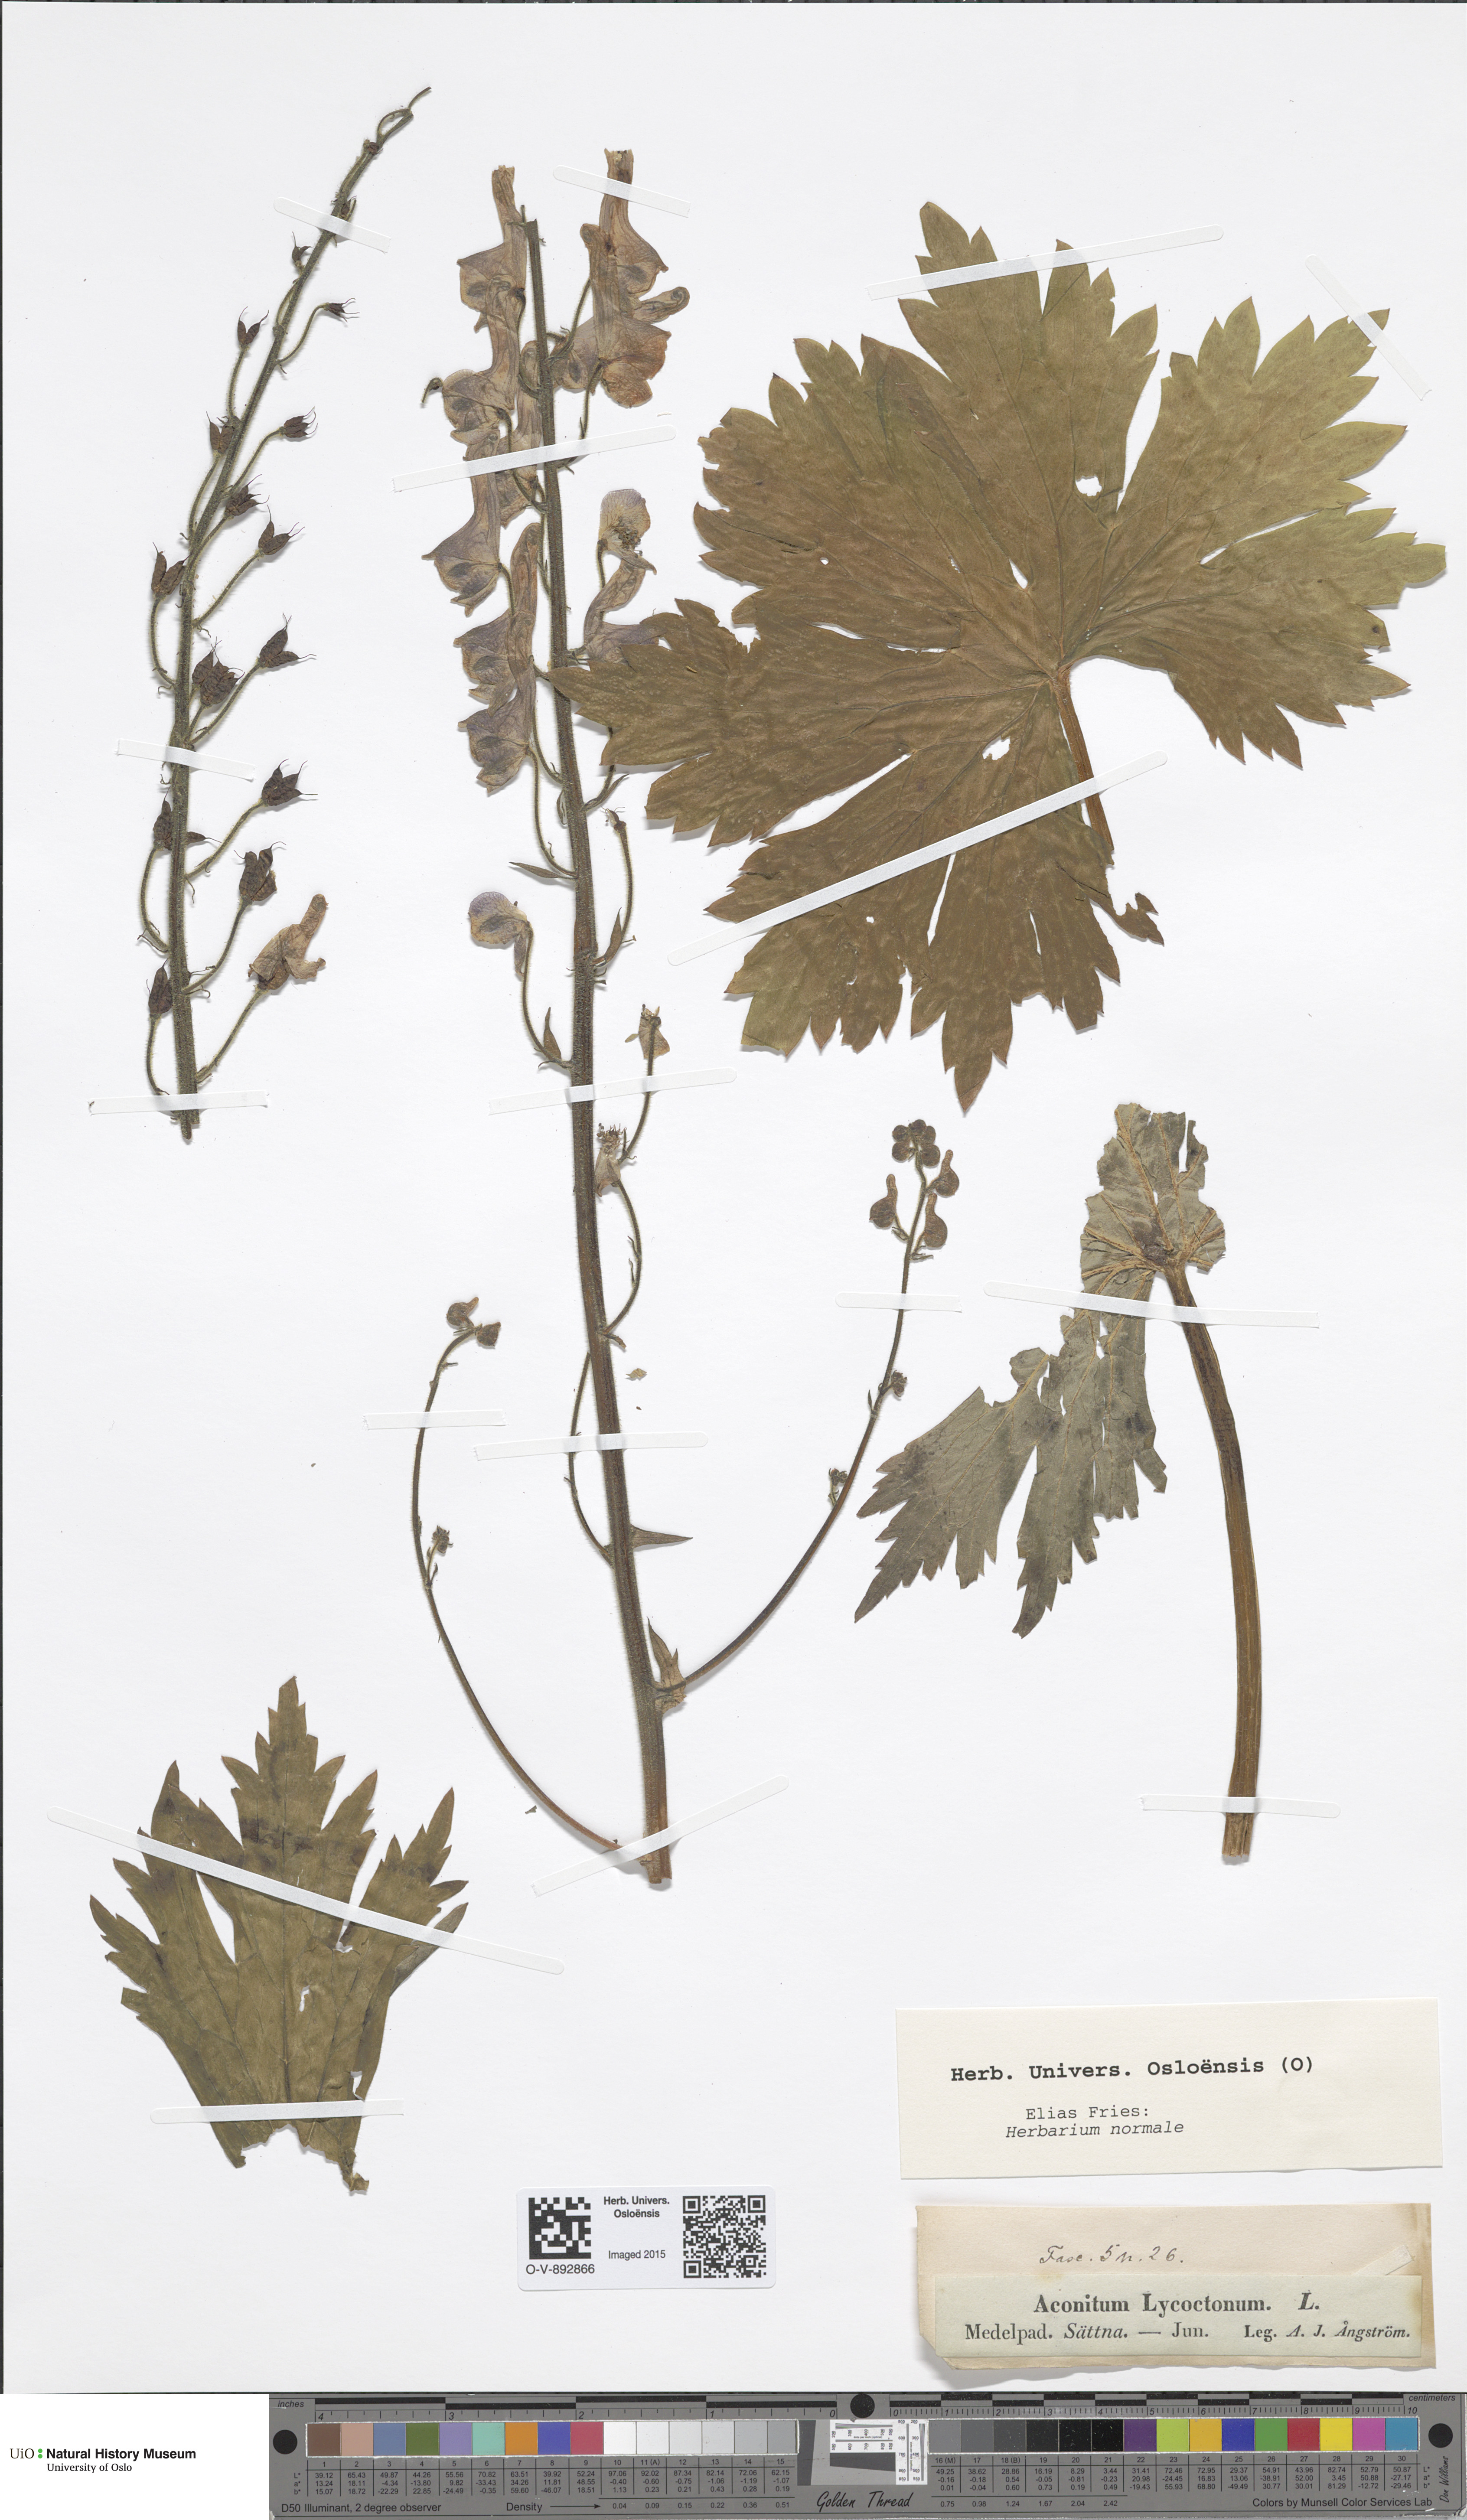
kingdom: Plantae
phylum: Tracheophyta
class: Magnoliopsida
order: Ranunculales
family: Ranunculaceae
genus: Aconitum
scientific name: Aconitum septentrionale
